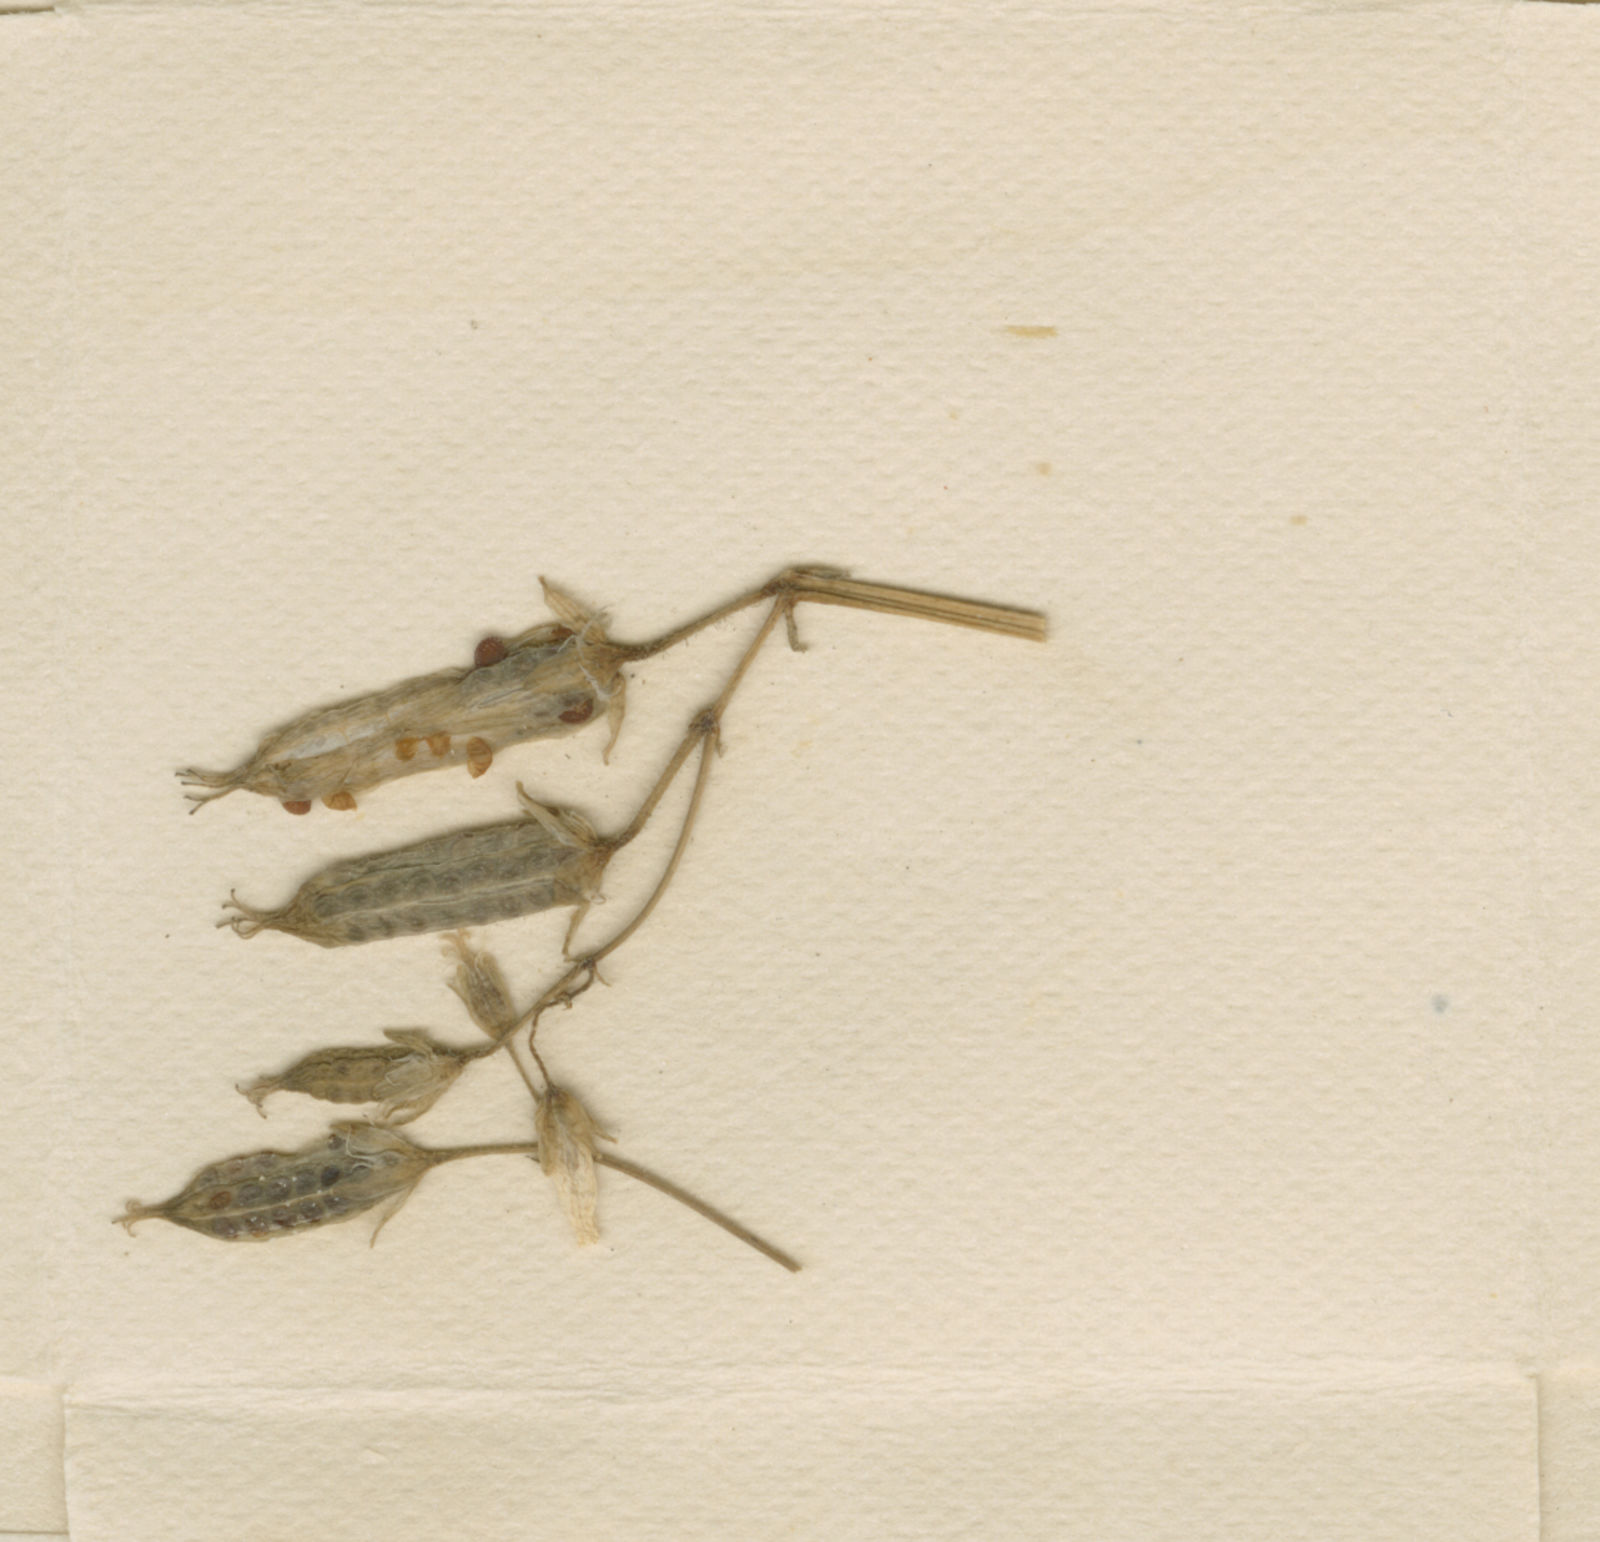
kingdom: Plantae
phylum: Tracheophyta
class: Magnoliopsida
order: Oxalidales
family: Oxalidaceae
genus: Oxalis
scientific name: Oxalis stricta
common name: Upright yellow-sorrel
